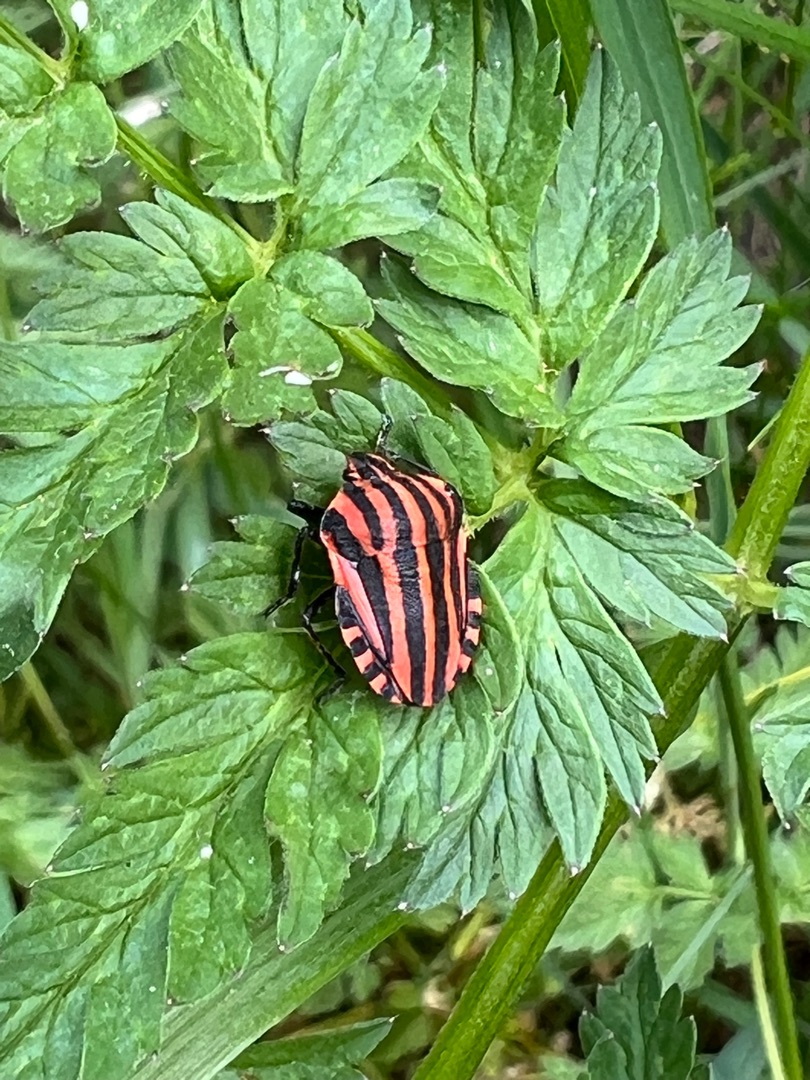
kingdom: Animalia
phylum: Arthropoda
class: Insecta
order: Hemiptera
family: Pentatomidae
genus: Graphosoma
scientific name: Graphosoma italicum
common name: Stribetæge
